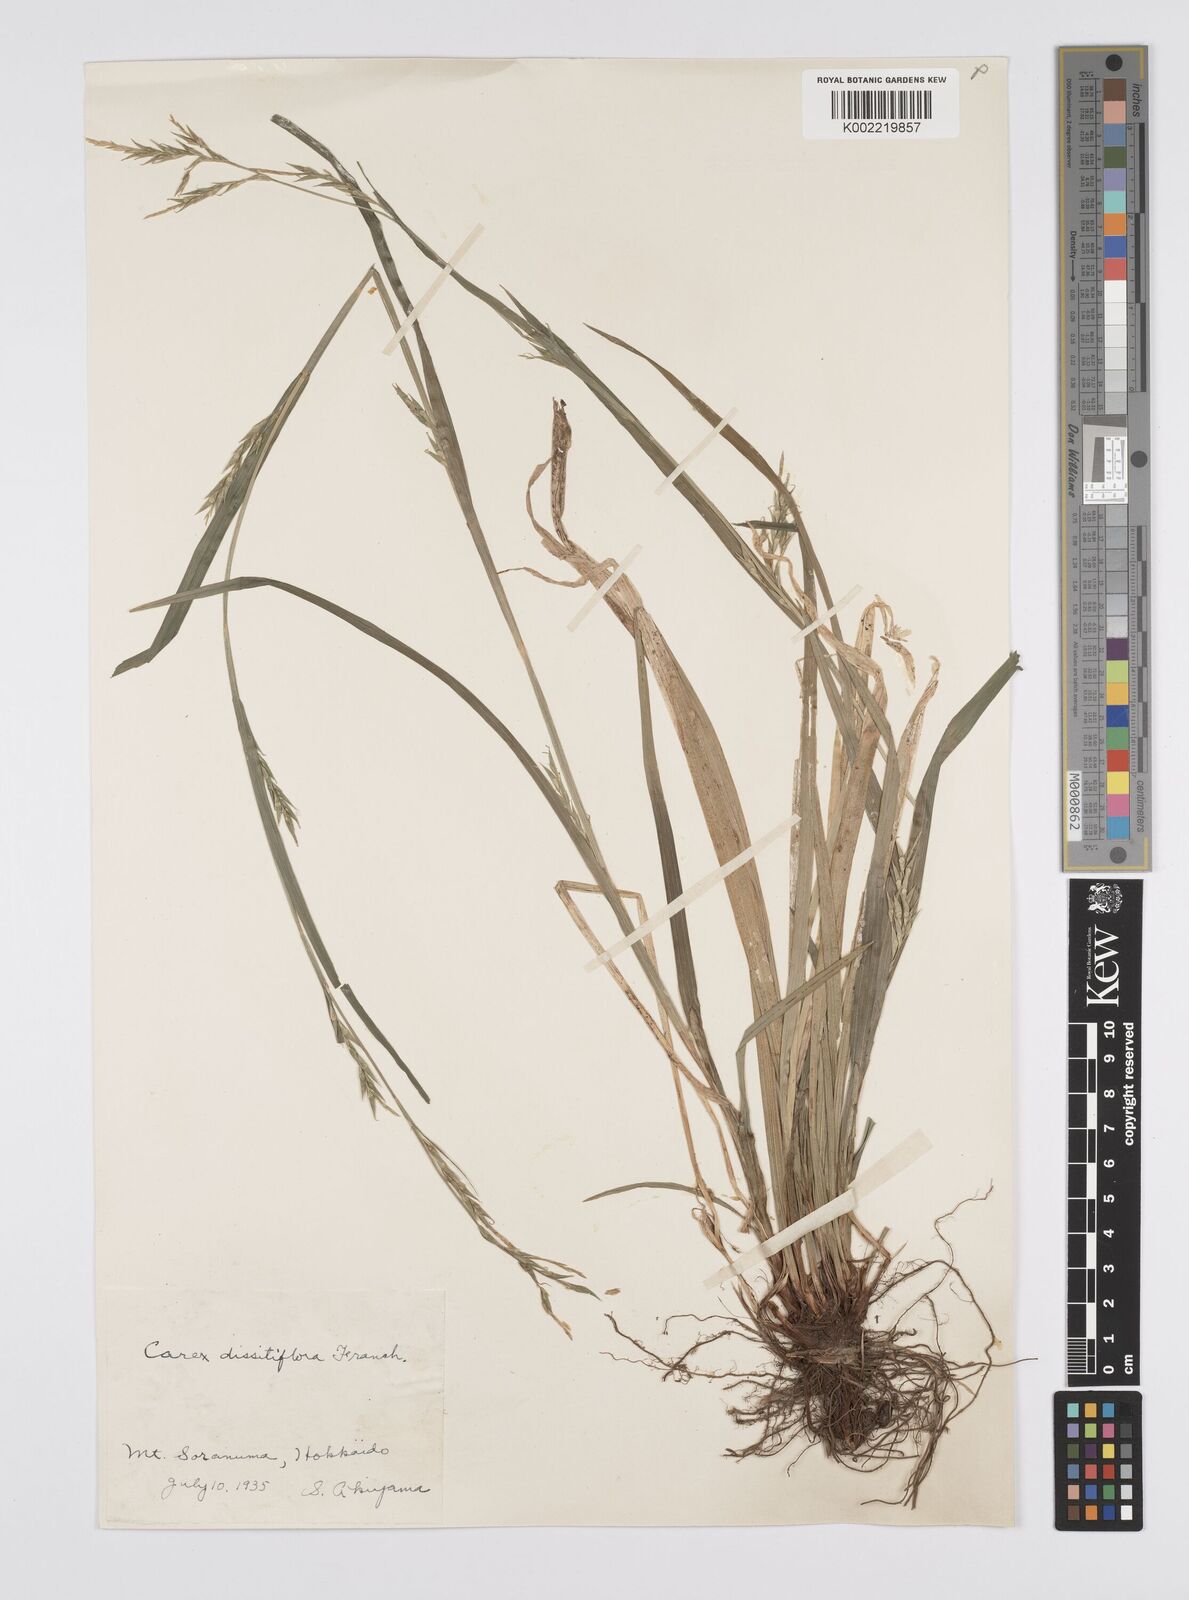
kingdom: Plantae
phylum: Tracheophyta
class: Liliopsida
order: Poales
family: Cyperaceae
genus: Carex
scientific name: Carex dissitiflora
